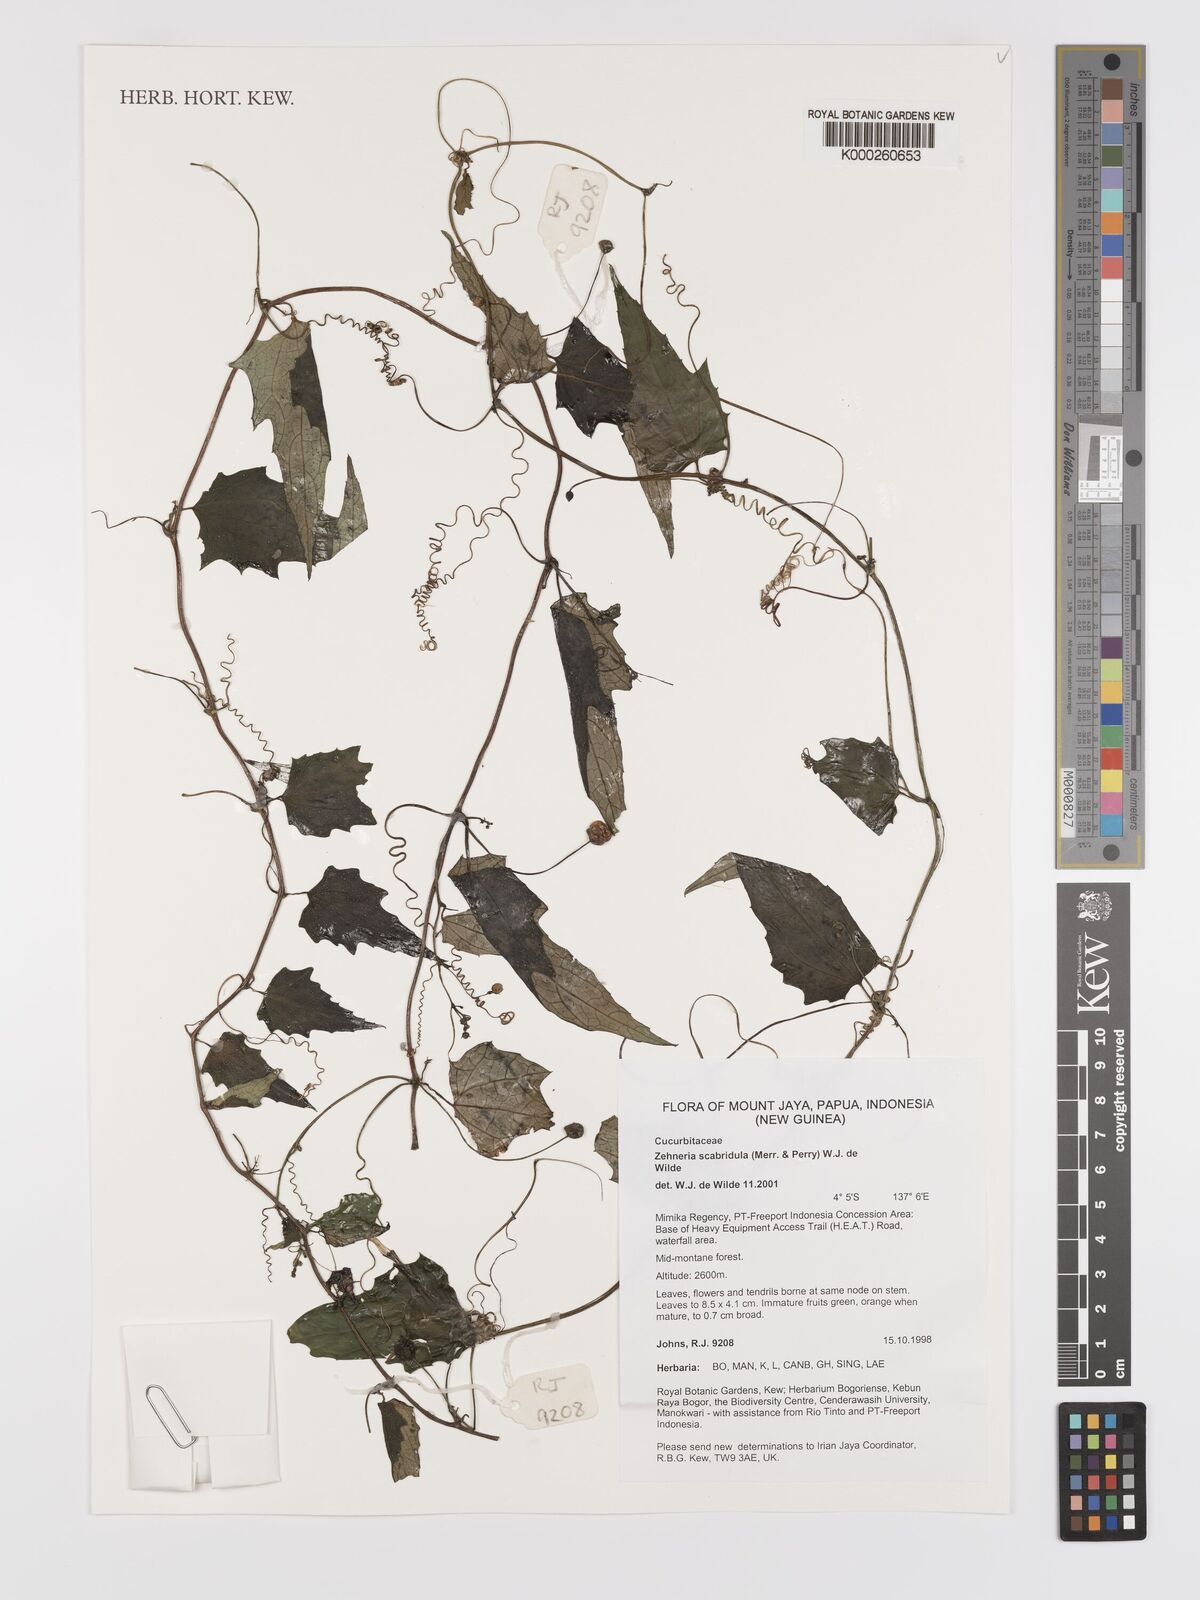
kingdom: Plantae
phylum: Tracheophyta
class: Magnoliopsida
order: Cucurbitales
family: Cucurbitaceae
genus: Zehneria
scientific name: Zehneria
